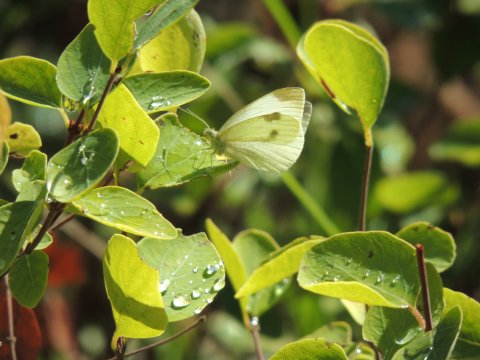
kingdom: Animalia
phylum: Arthropoda
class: Insecta
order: Lepidoptera
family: Pieridae
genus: Pieris
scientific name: Pieris rapae
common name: Cabbage White
